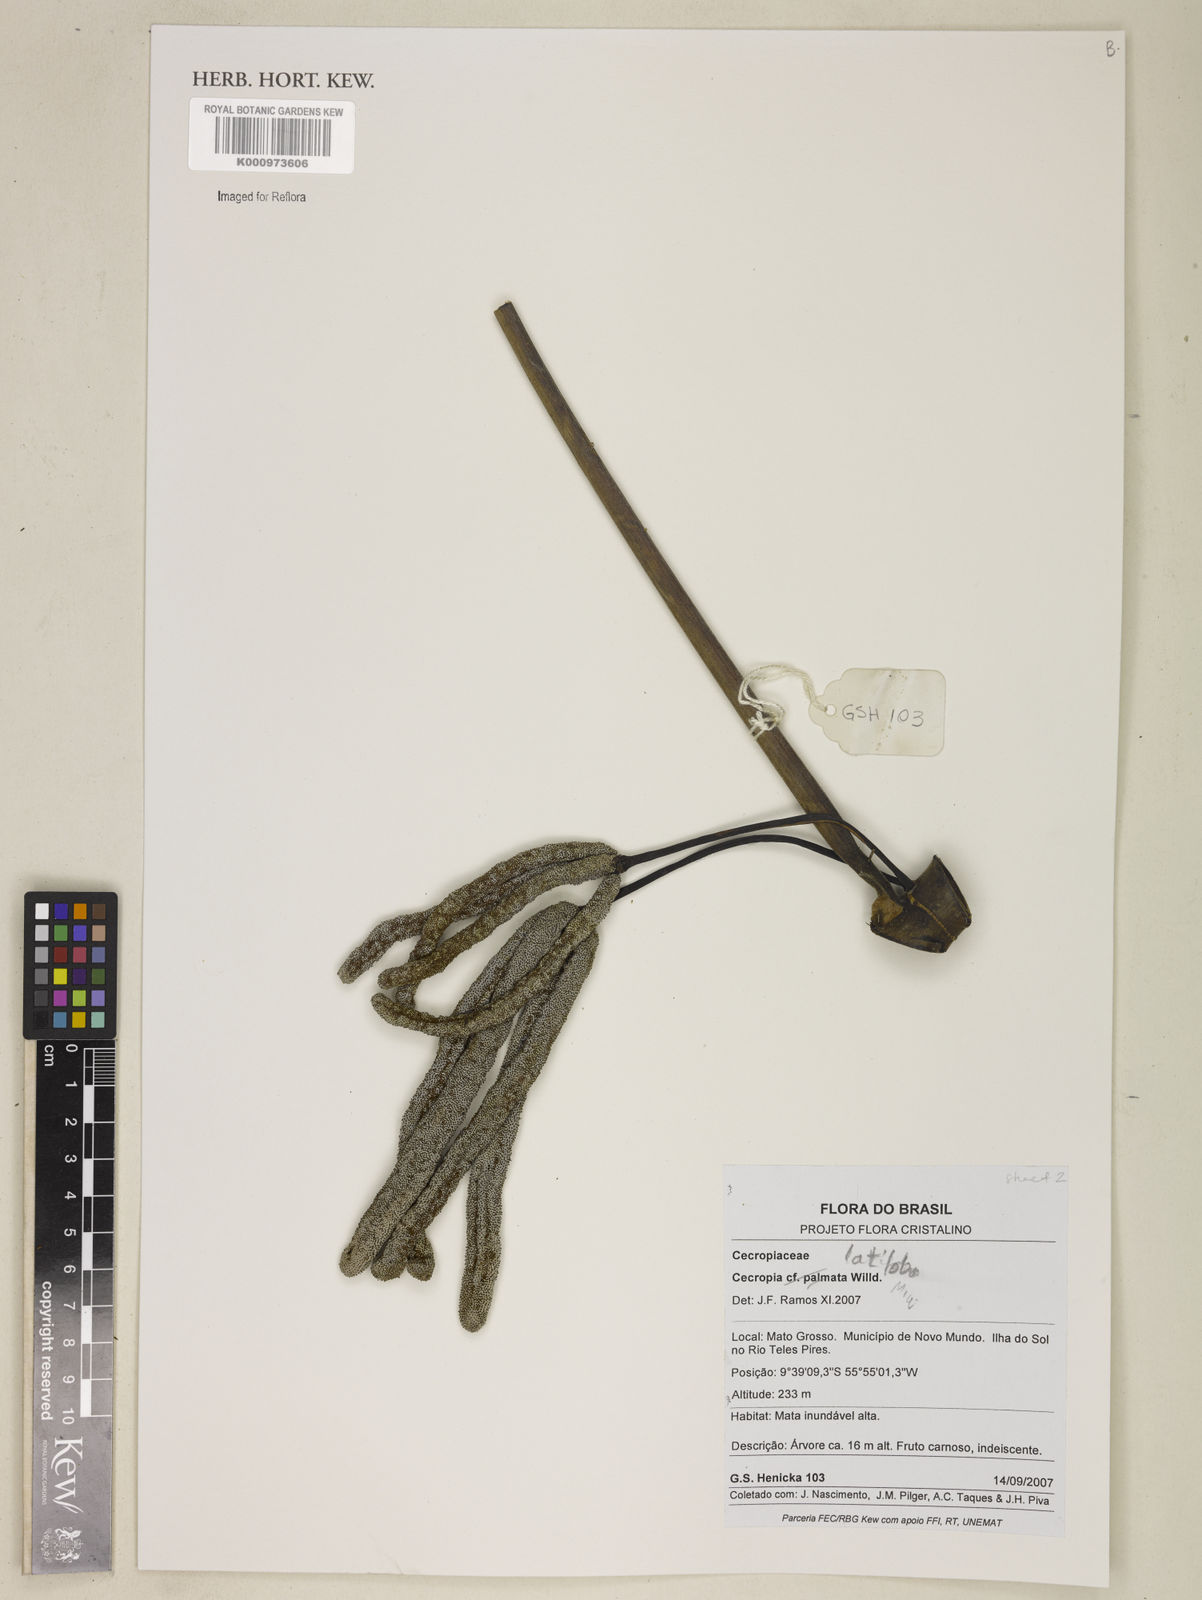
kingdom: Plantae
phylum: Tracheophyta
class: Magnoliopsida
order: Rosales
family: Urticaceae
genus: Cecropia
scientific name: Cecropia latiloba
